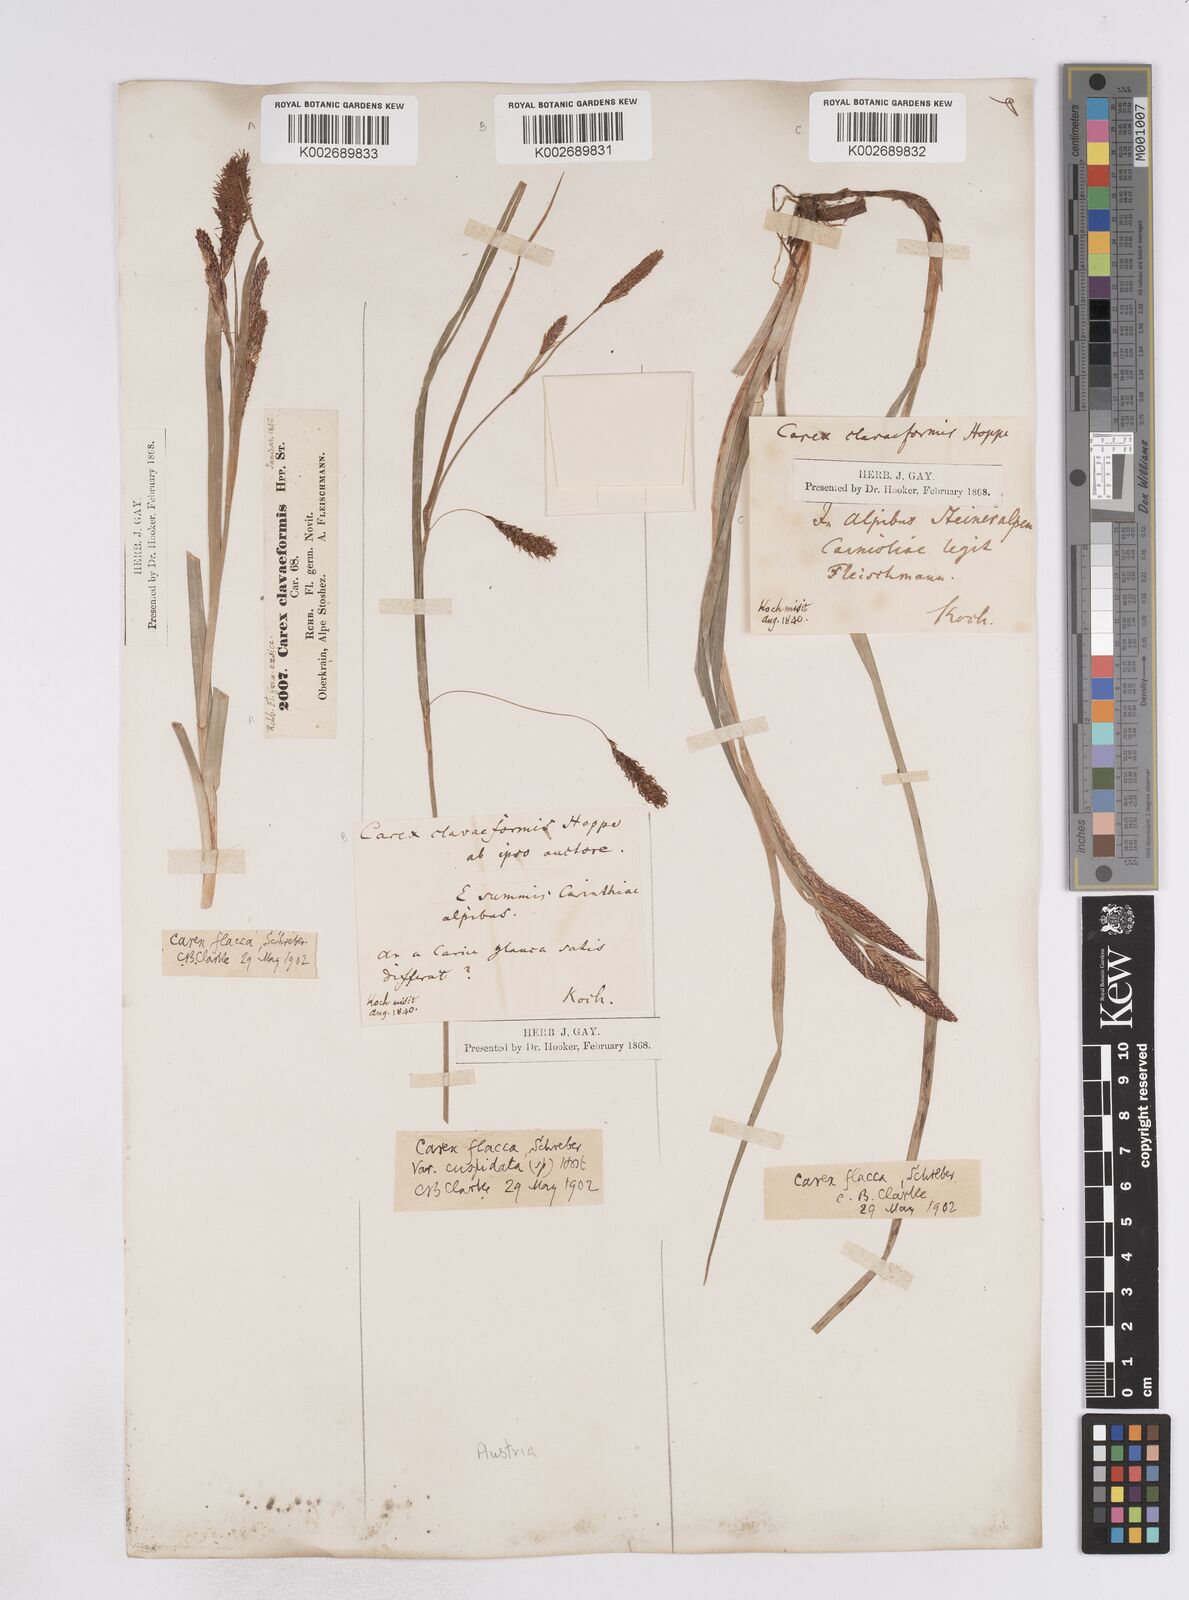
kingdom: Plantae
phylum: Tracheophyta
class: Liliopsida
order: Poales
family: Cyperaceae
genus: Carex
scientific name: Carex flacca
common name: Glaucous sedge
